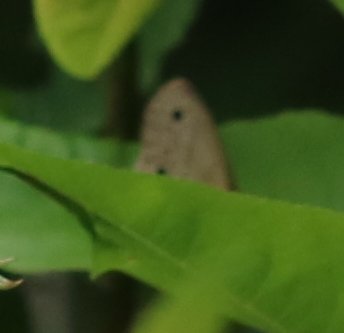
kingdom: Animalia
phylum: Arthropoda
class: Insecta
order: Lepidoptera
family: Nymphalidae
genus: Euptychia
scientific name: Euptychia cymela
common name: Little Wood Satyr
